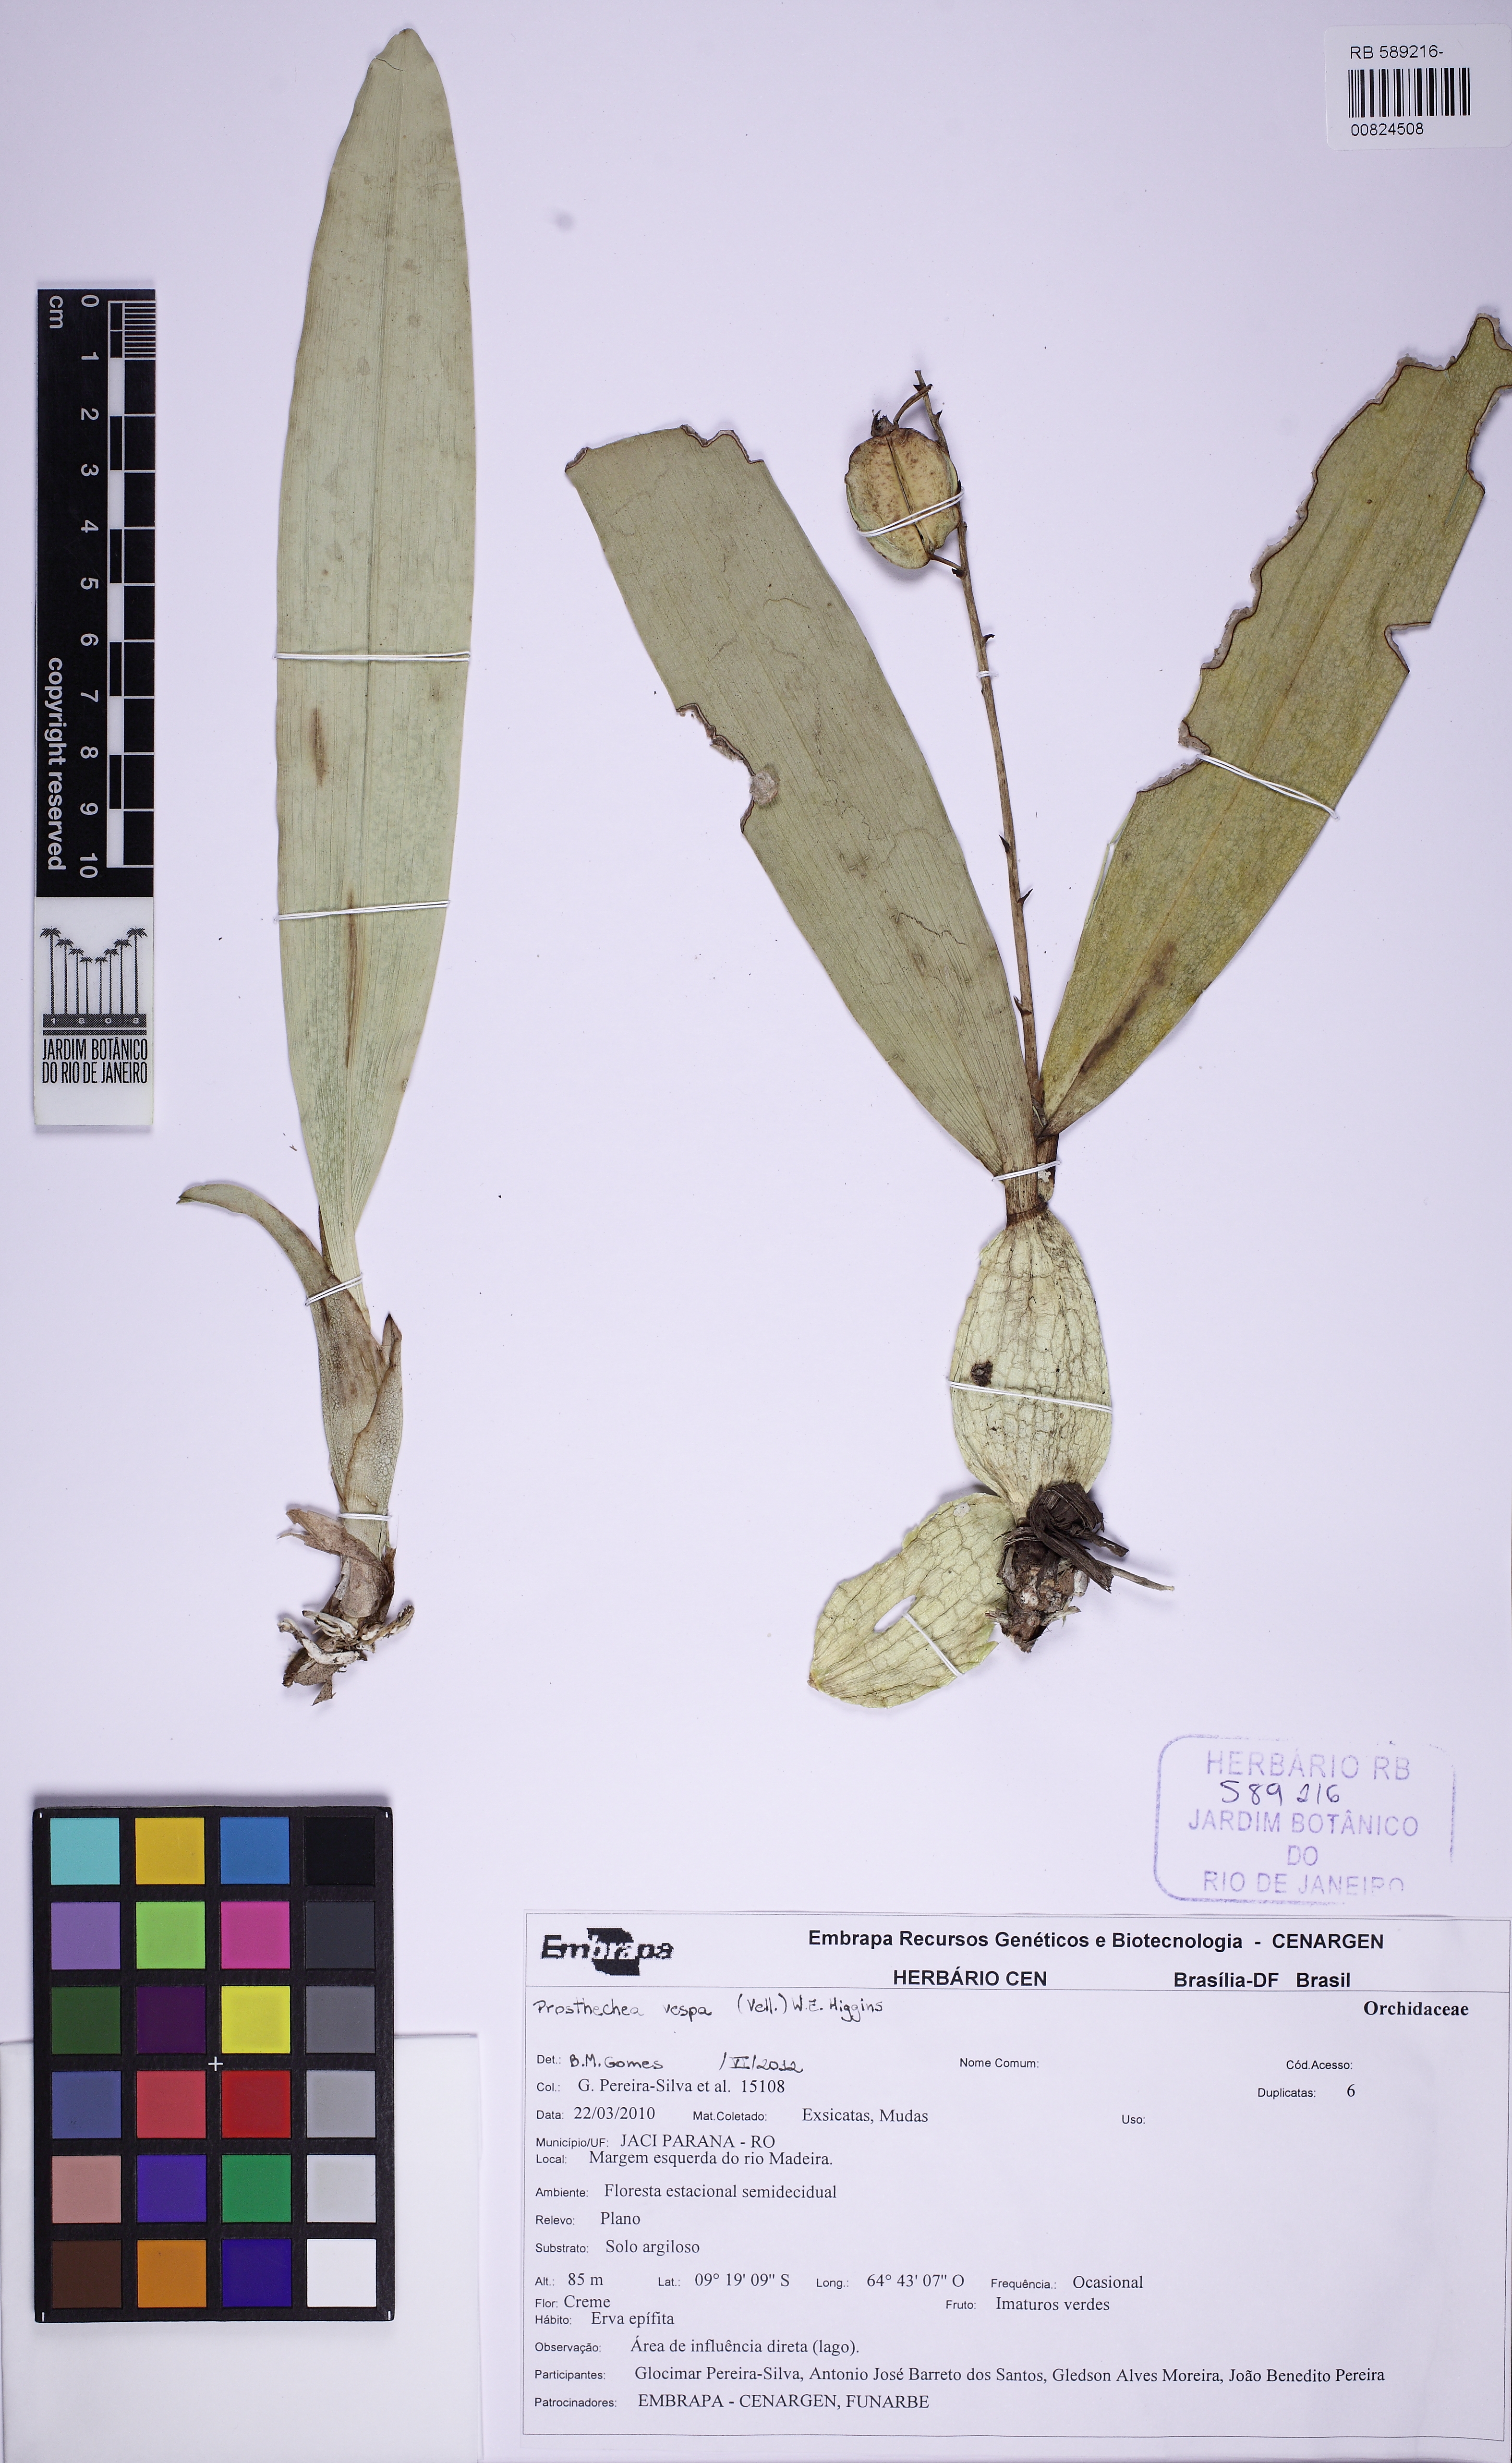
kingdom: Plantae
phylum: Tracheophyta
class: Liliopsida
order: Asparagales
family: Orchidaceae
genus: Prosthechea
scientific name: Prosthechea vespa
